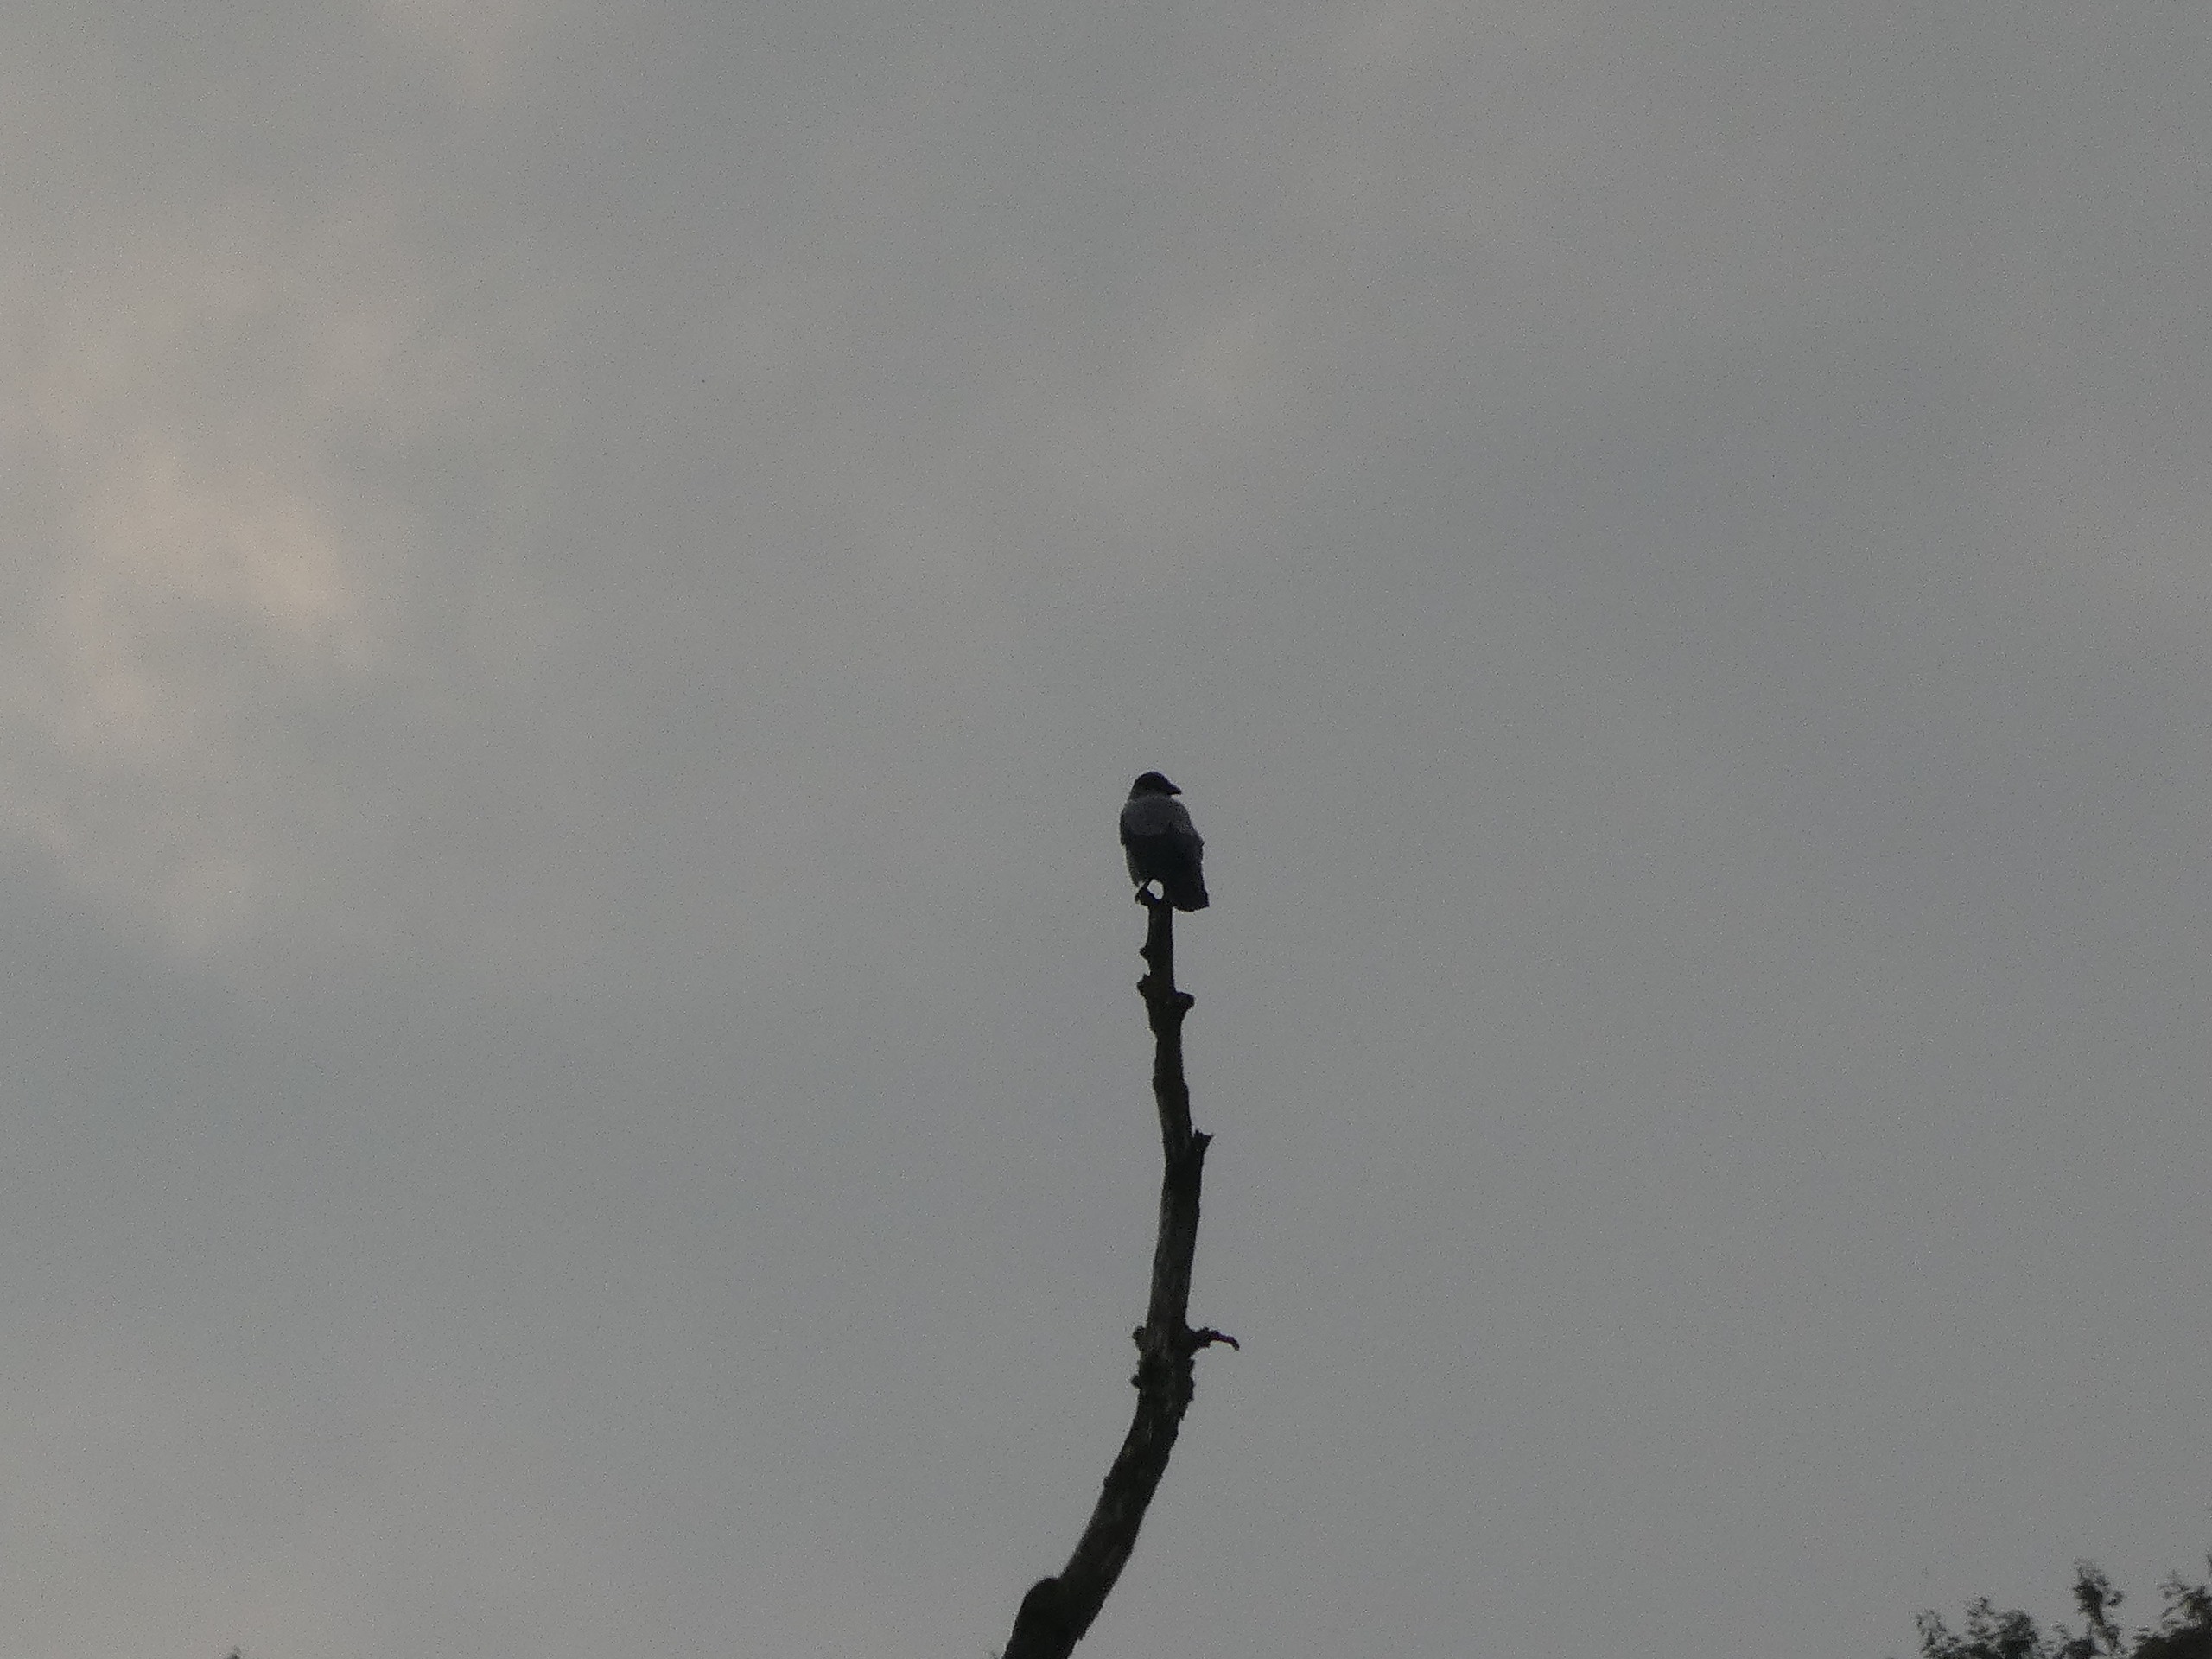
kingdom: Animalia
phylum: Chordata
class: Aves
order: Passeriformes
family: Corvidae
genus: Corvus
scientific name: Corvus cornix
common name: Gråkrage
